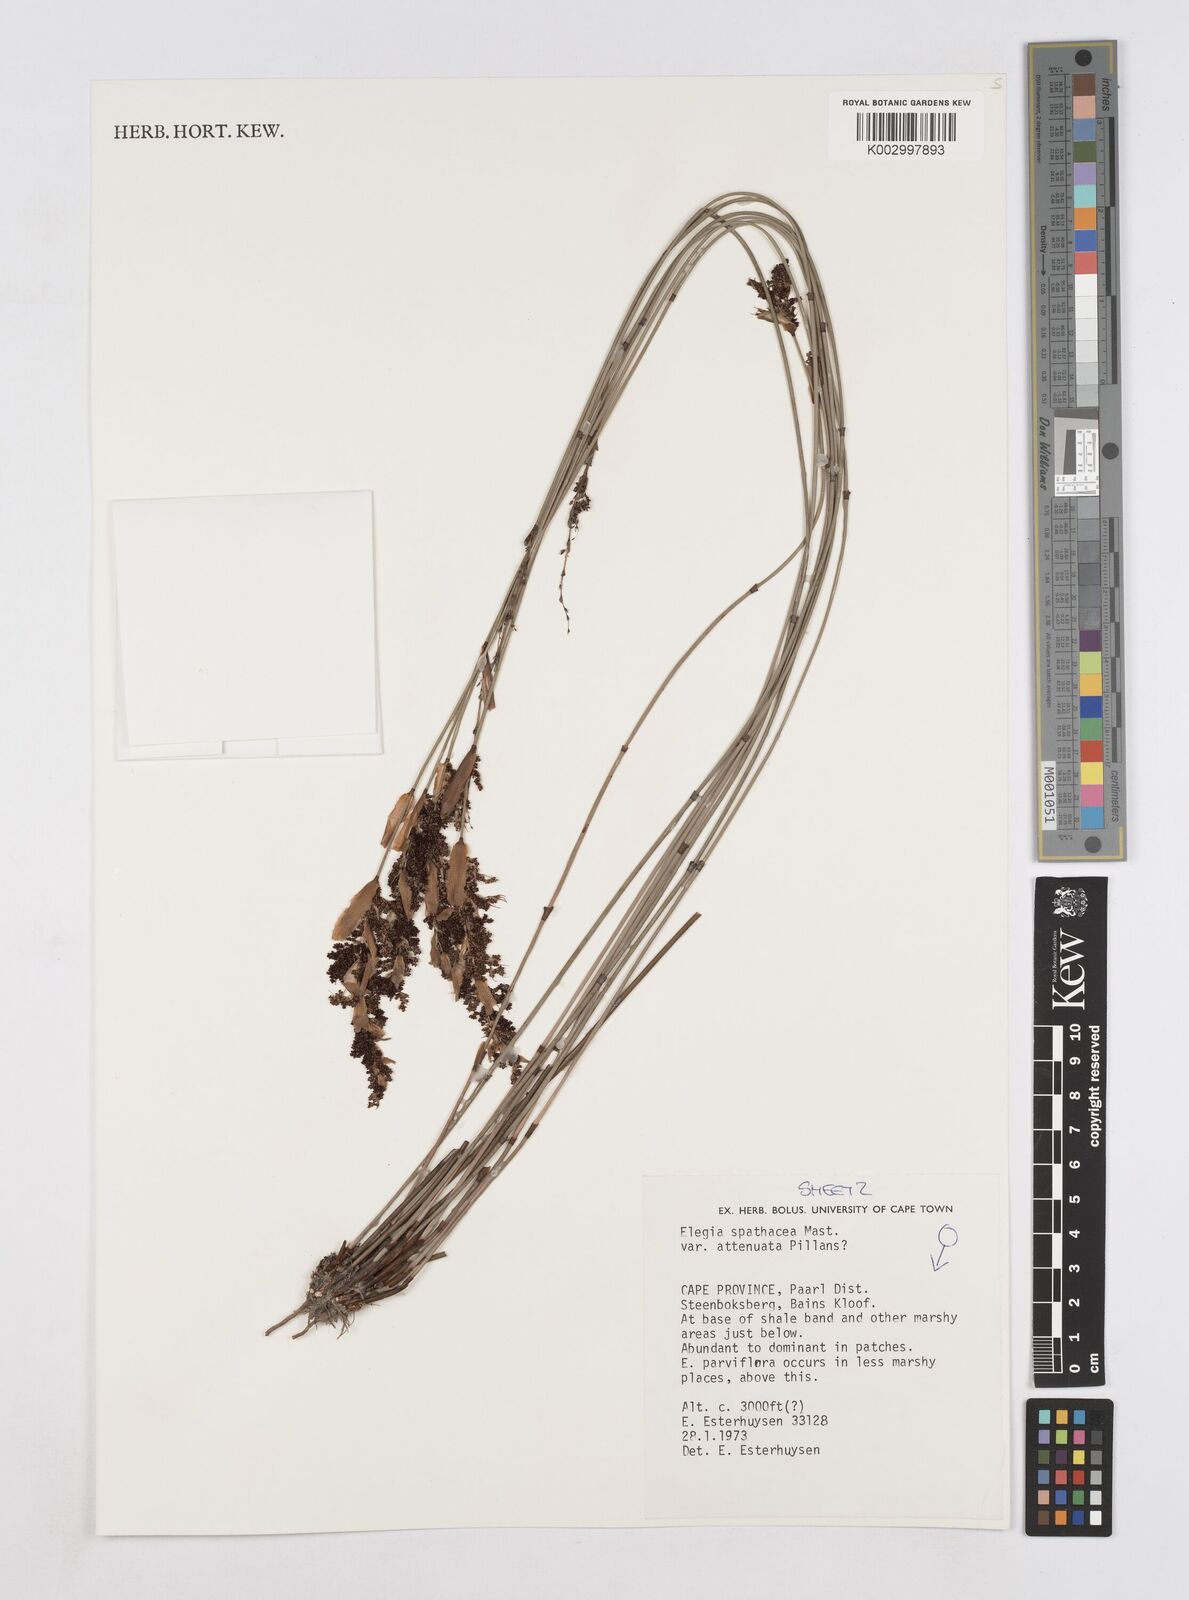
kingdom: Plantae
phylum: Tracheophyta
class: Liliopsida
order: Poales
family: Restionaceae
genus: Elegia
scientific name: Elegia rigida
